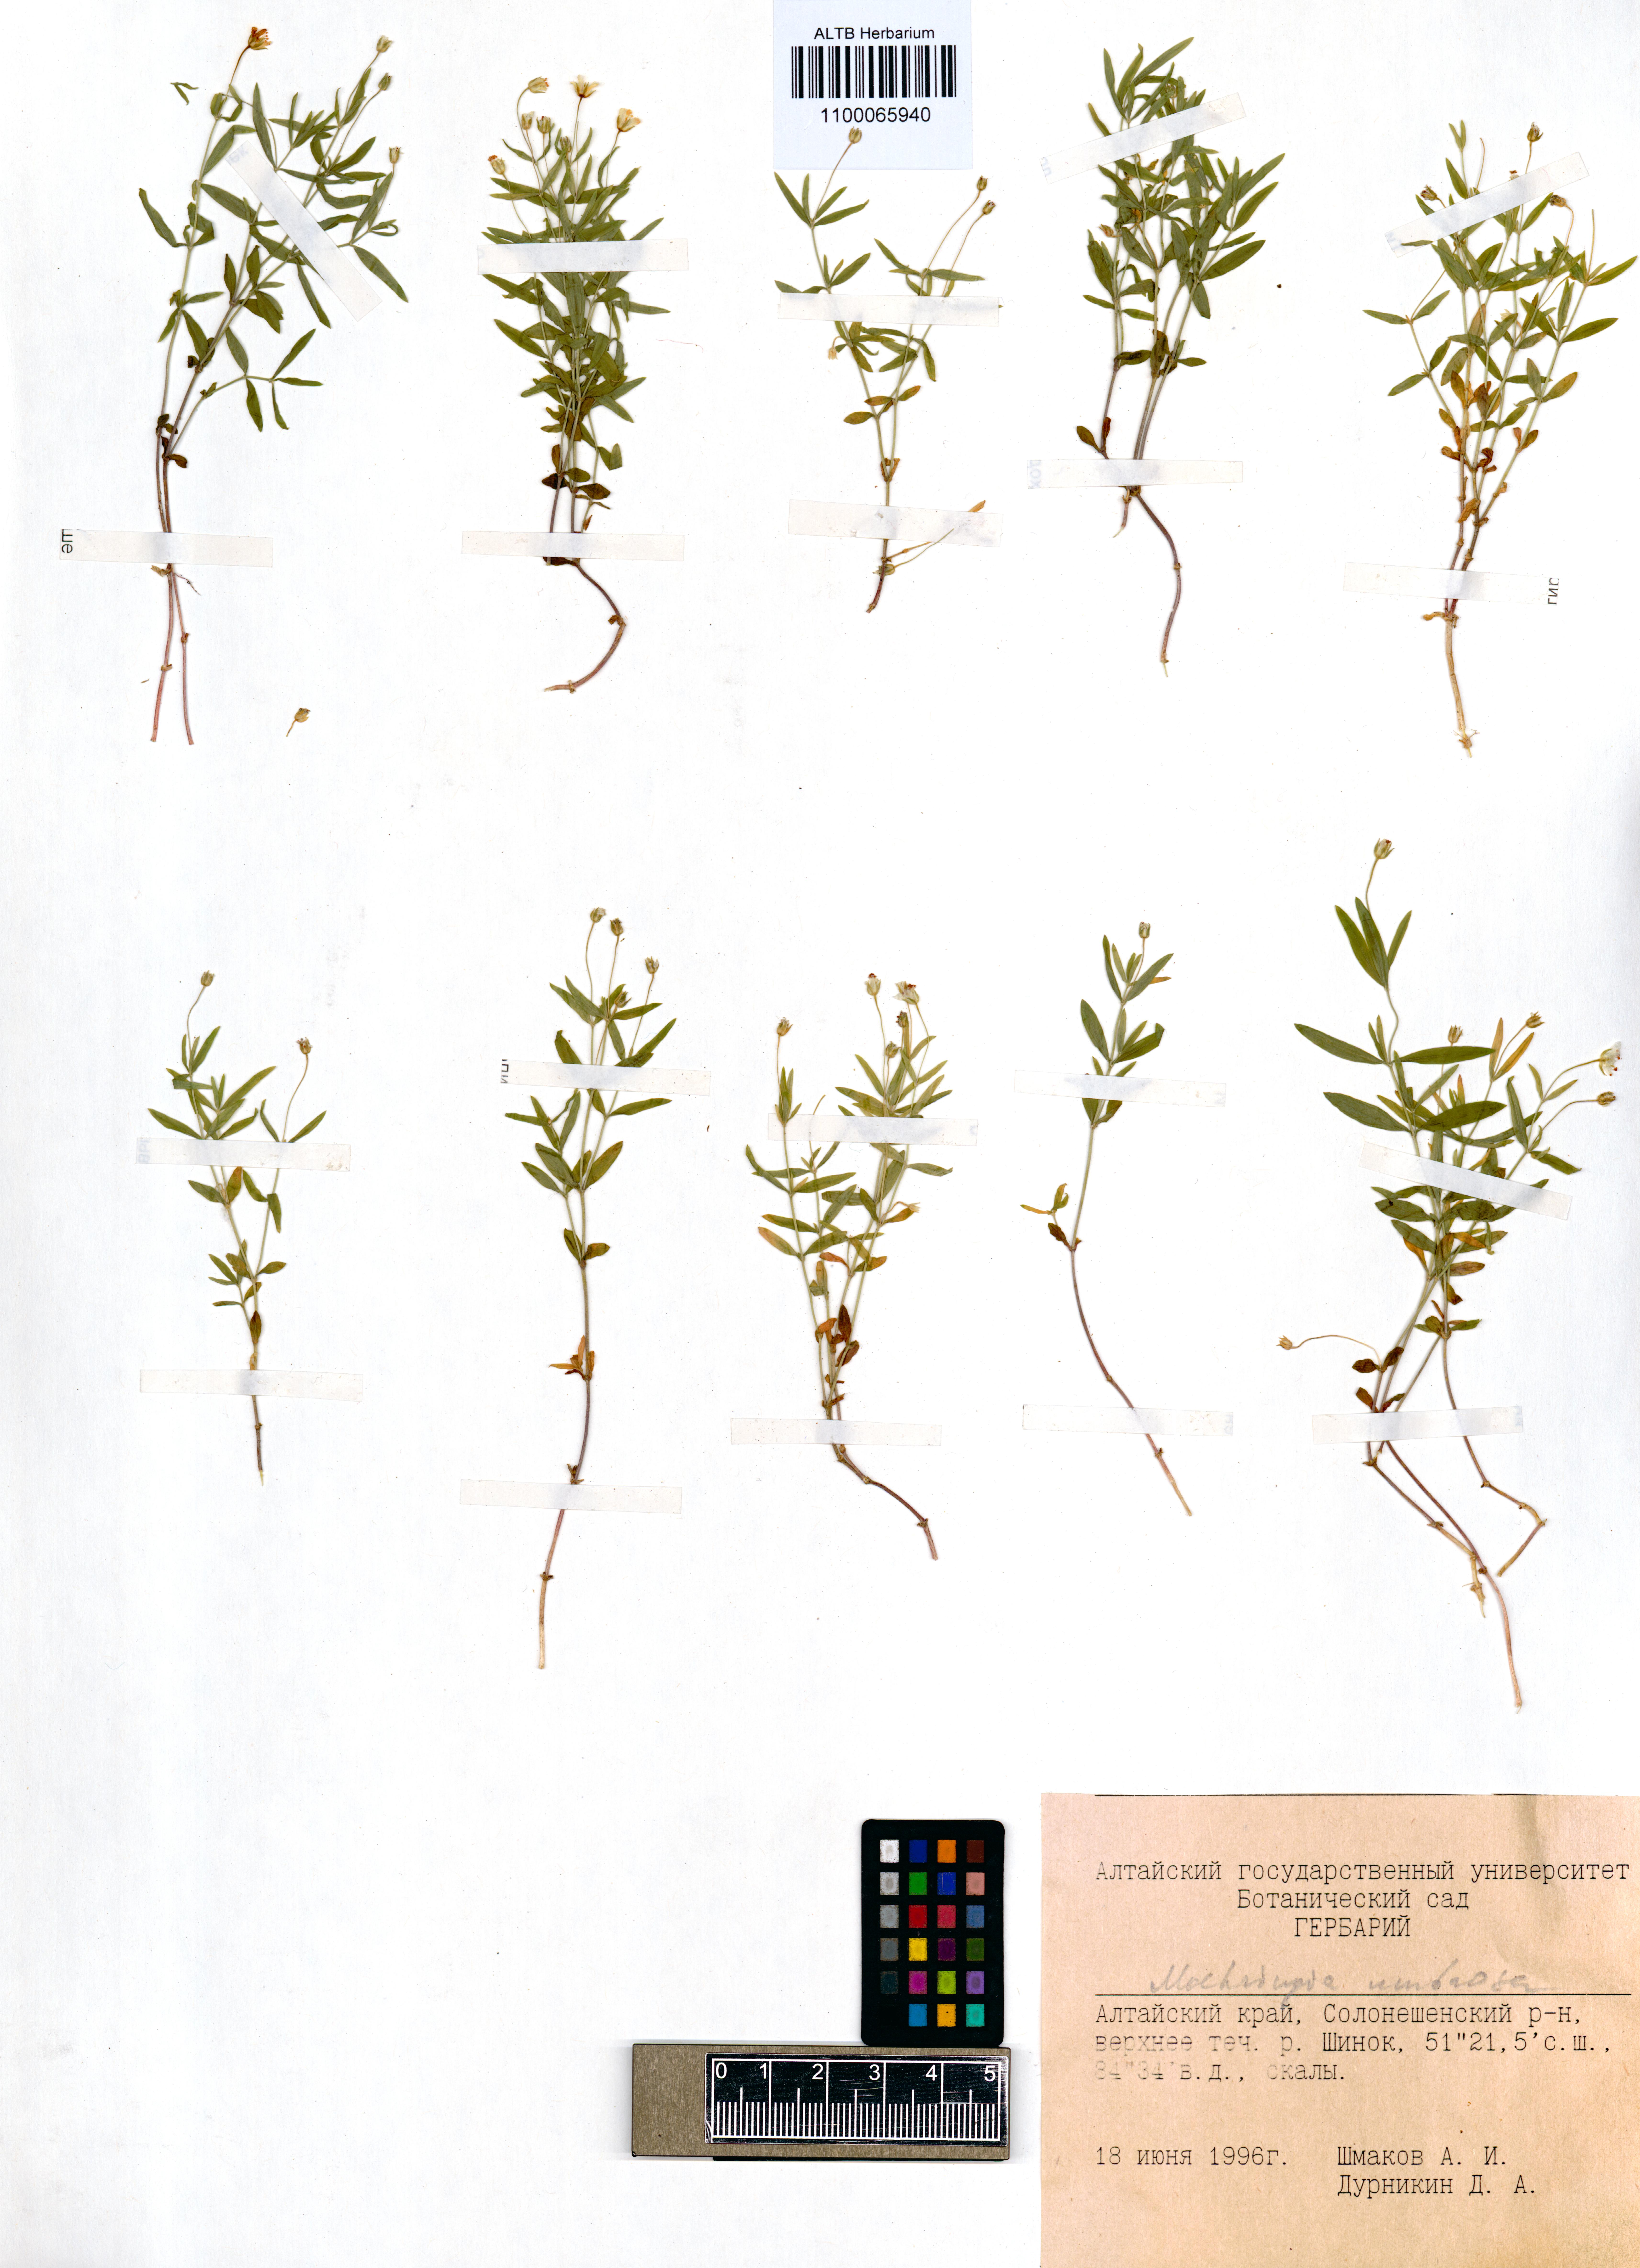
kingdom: Plantae
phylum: Tracheophyta
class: Magnoliopsida
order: Caryophyllales
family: Caryophyllaceae
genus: Moehringia
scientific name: Moehringia umbrosa
